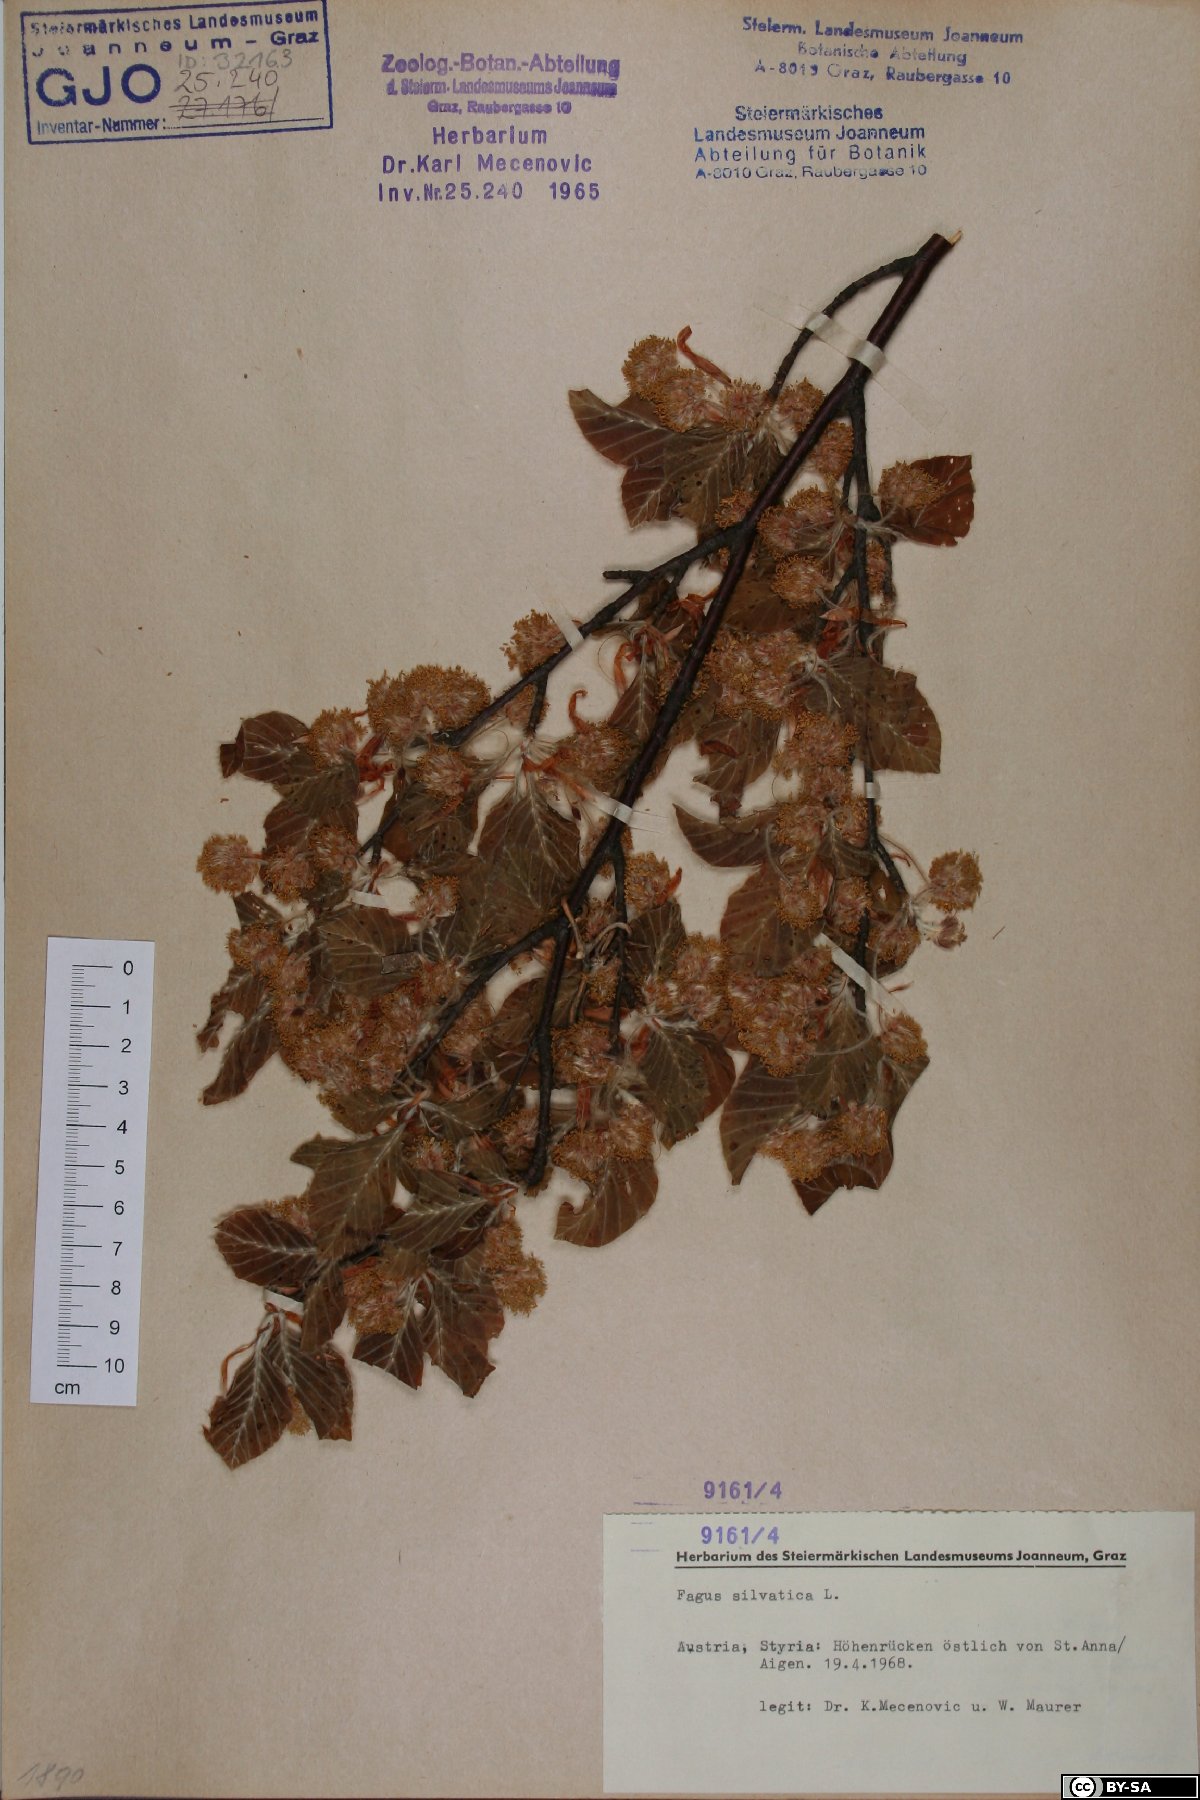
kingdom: Plantae
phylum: Tracheophyta
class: Magnoliopsida
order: Fagales
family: Fagaceae
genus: Fagus
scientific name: Fagus sylvatica
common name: Beech
